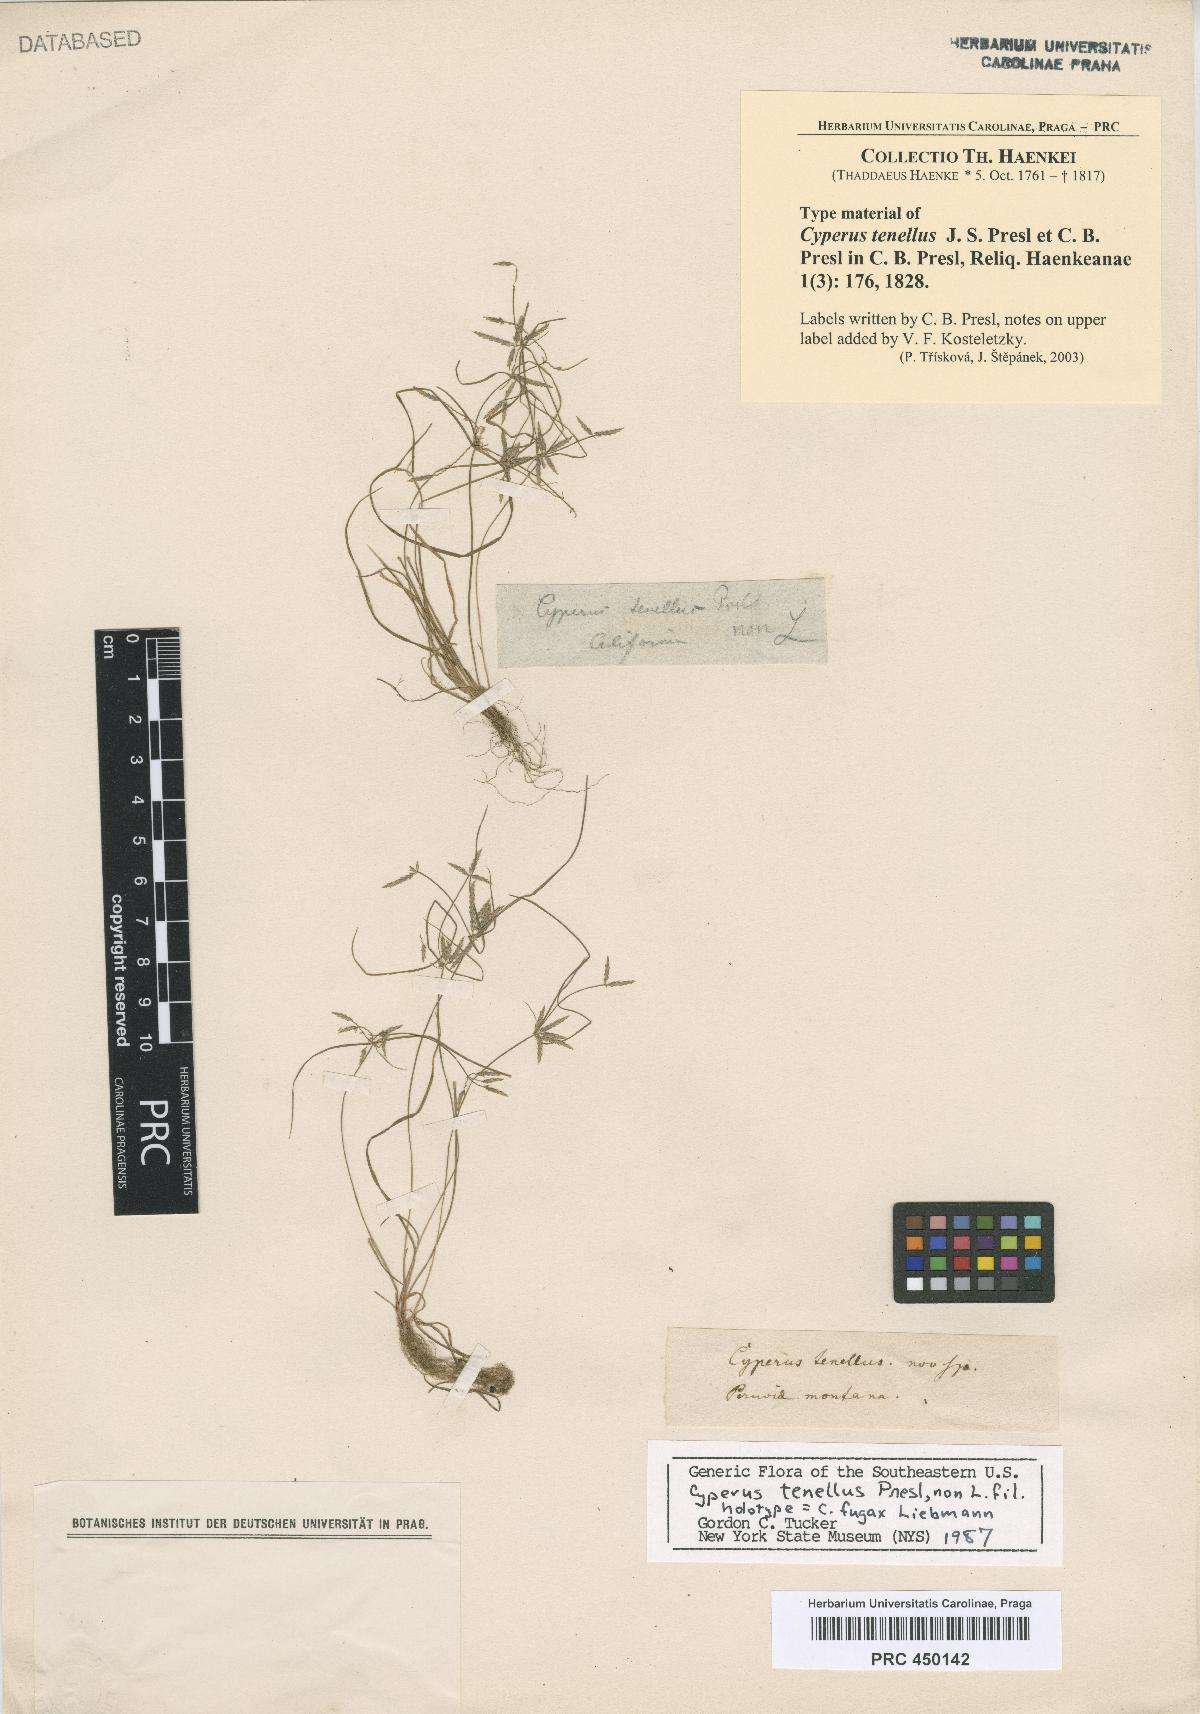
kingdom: Plantae
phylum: Tracheophyta
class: Liliopsida
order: Poales
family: Cyperaceae
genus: Cyperus
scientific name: Cyperus fugax
